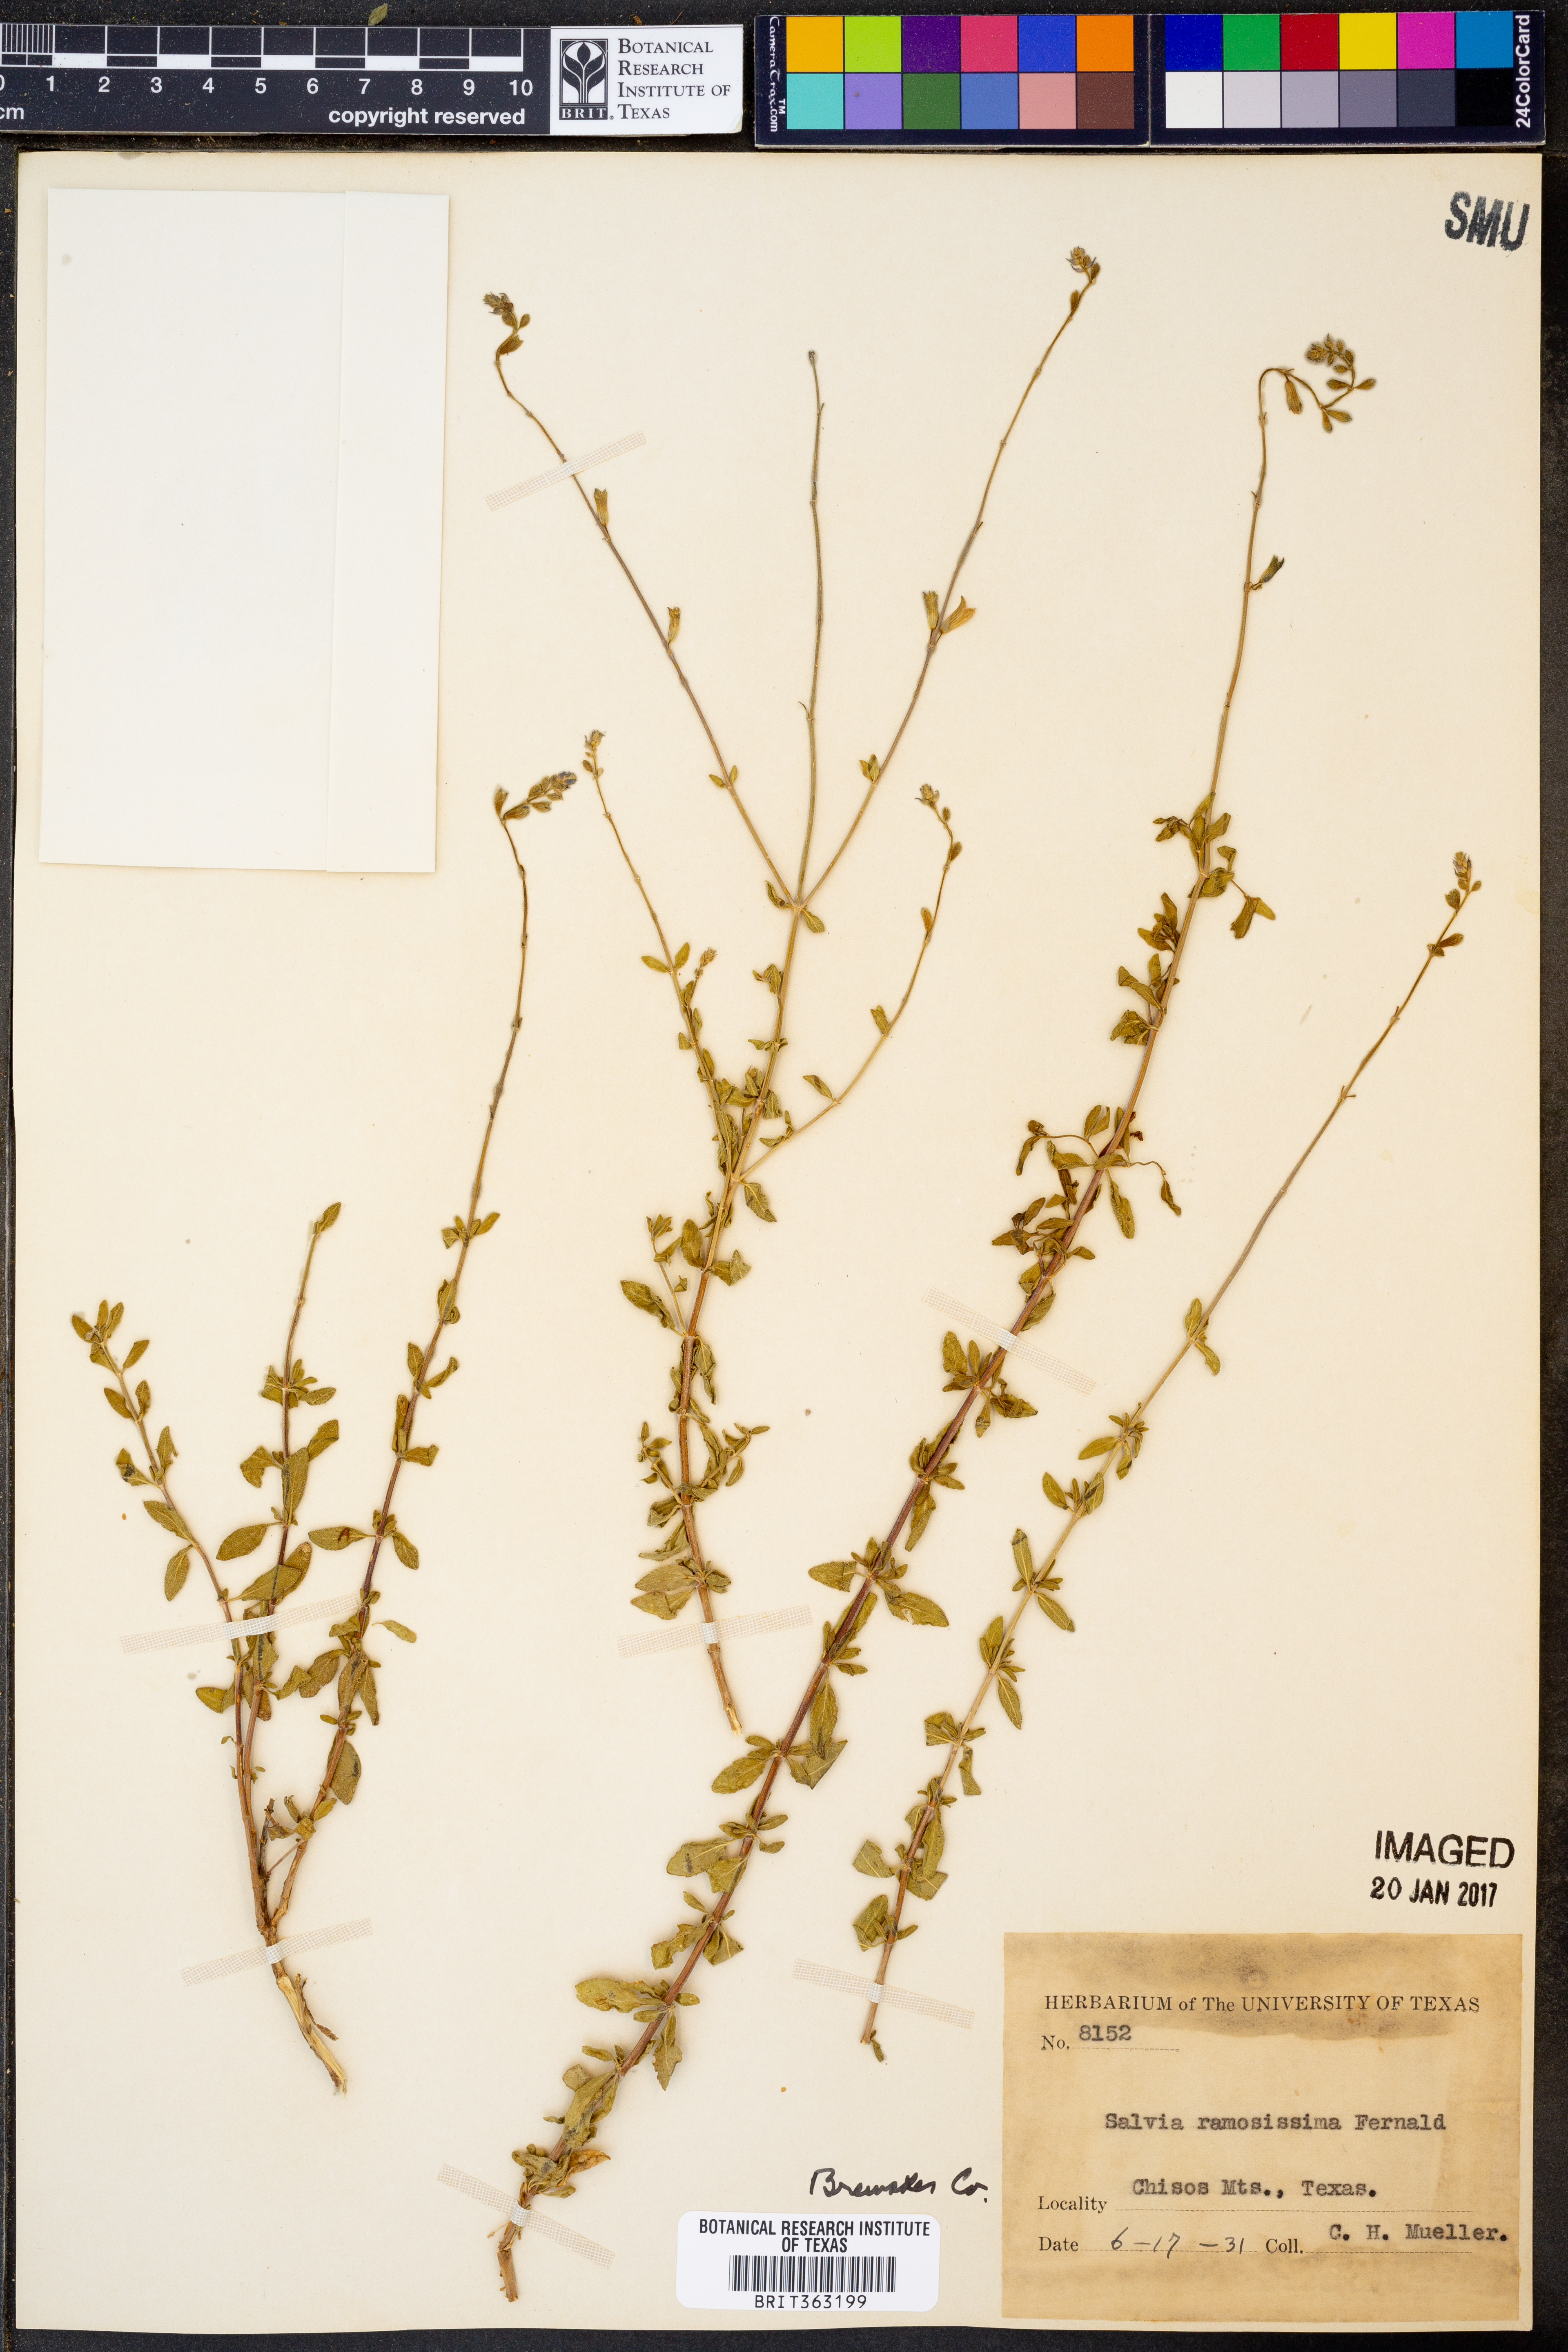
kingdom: Plantae
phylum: Tracheophyta
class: Magnoliopsida
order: Lamiales
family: Lamiaceae
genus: Salvia
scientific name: Salvia lycioides
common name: Canyon sage
